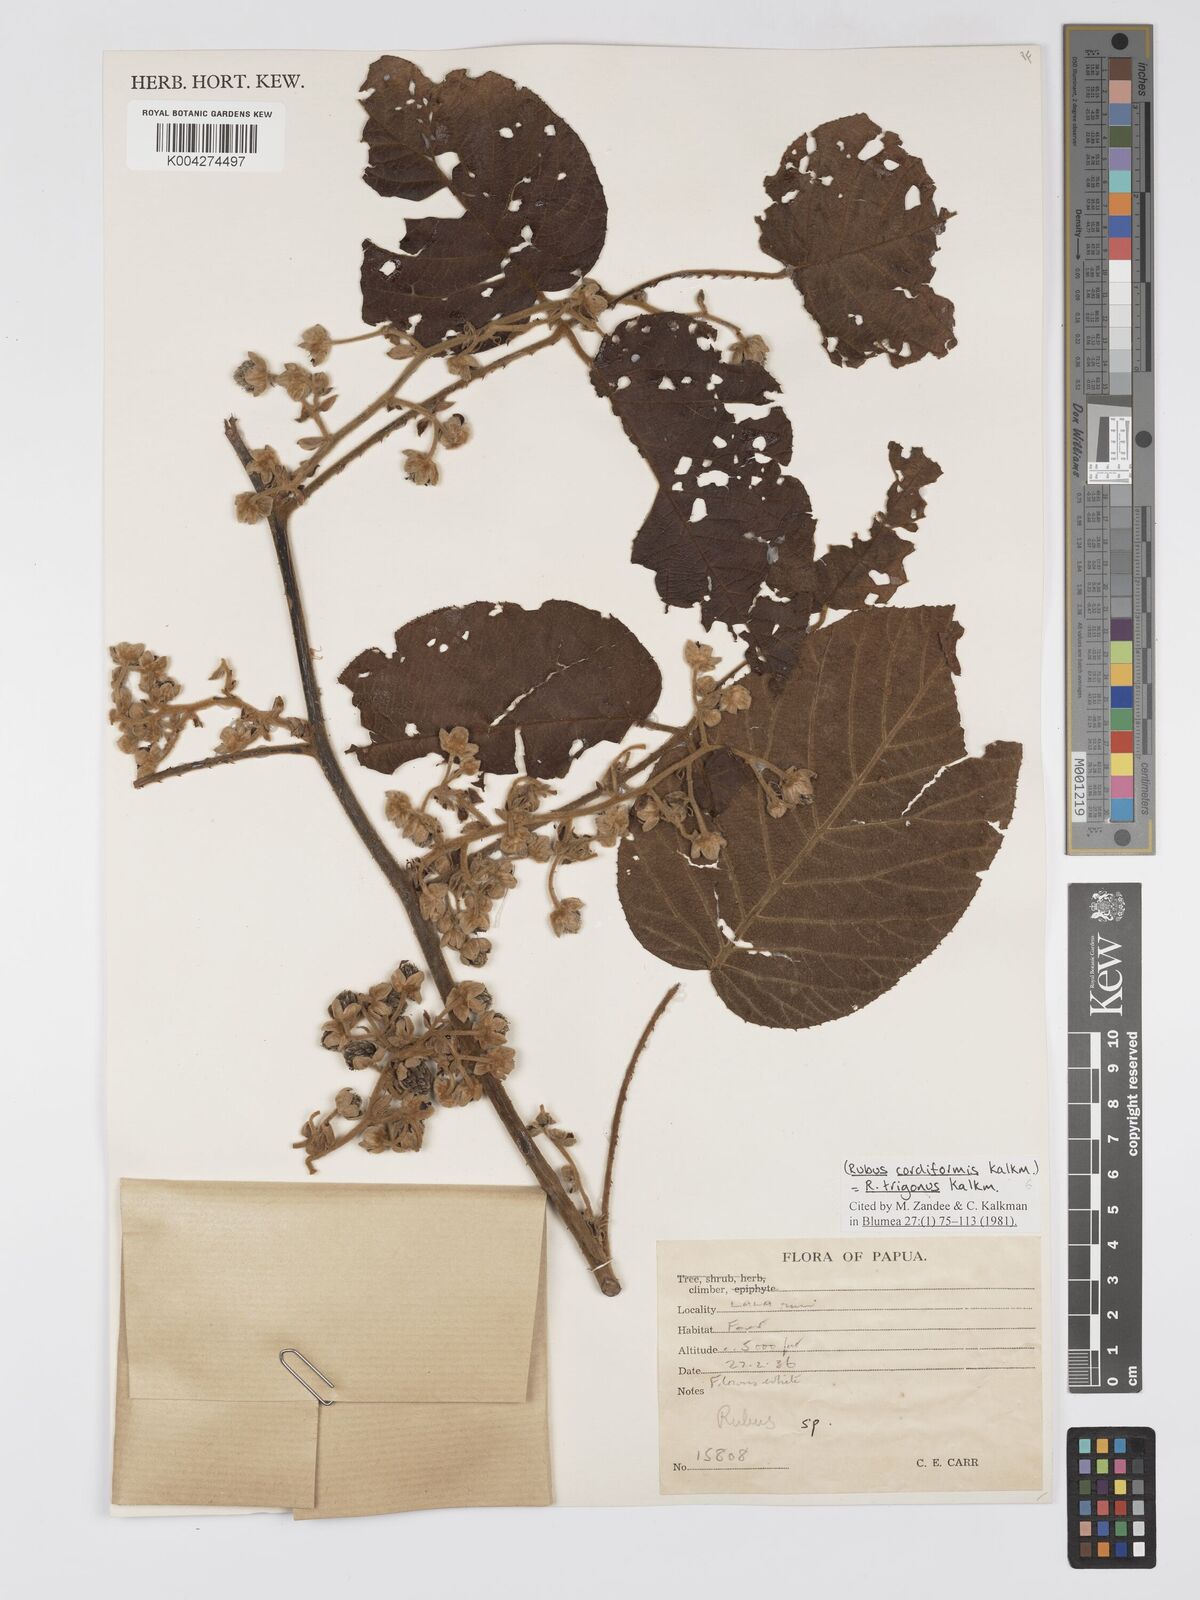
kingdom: Plantae
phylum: Tracheophyta
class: Magnoliopsida
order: Rosales
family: Rosaceae
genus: Rubus
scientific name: Rubus trigonus
